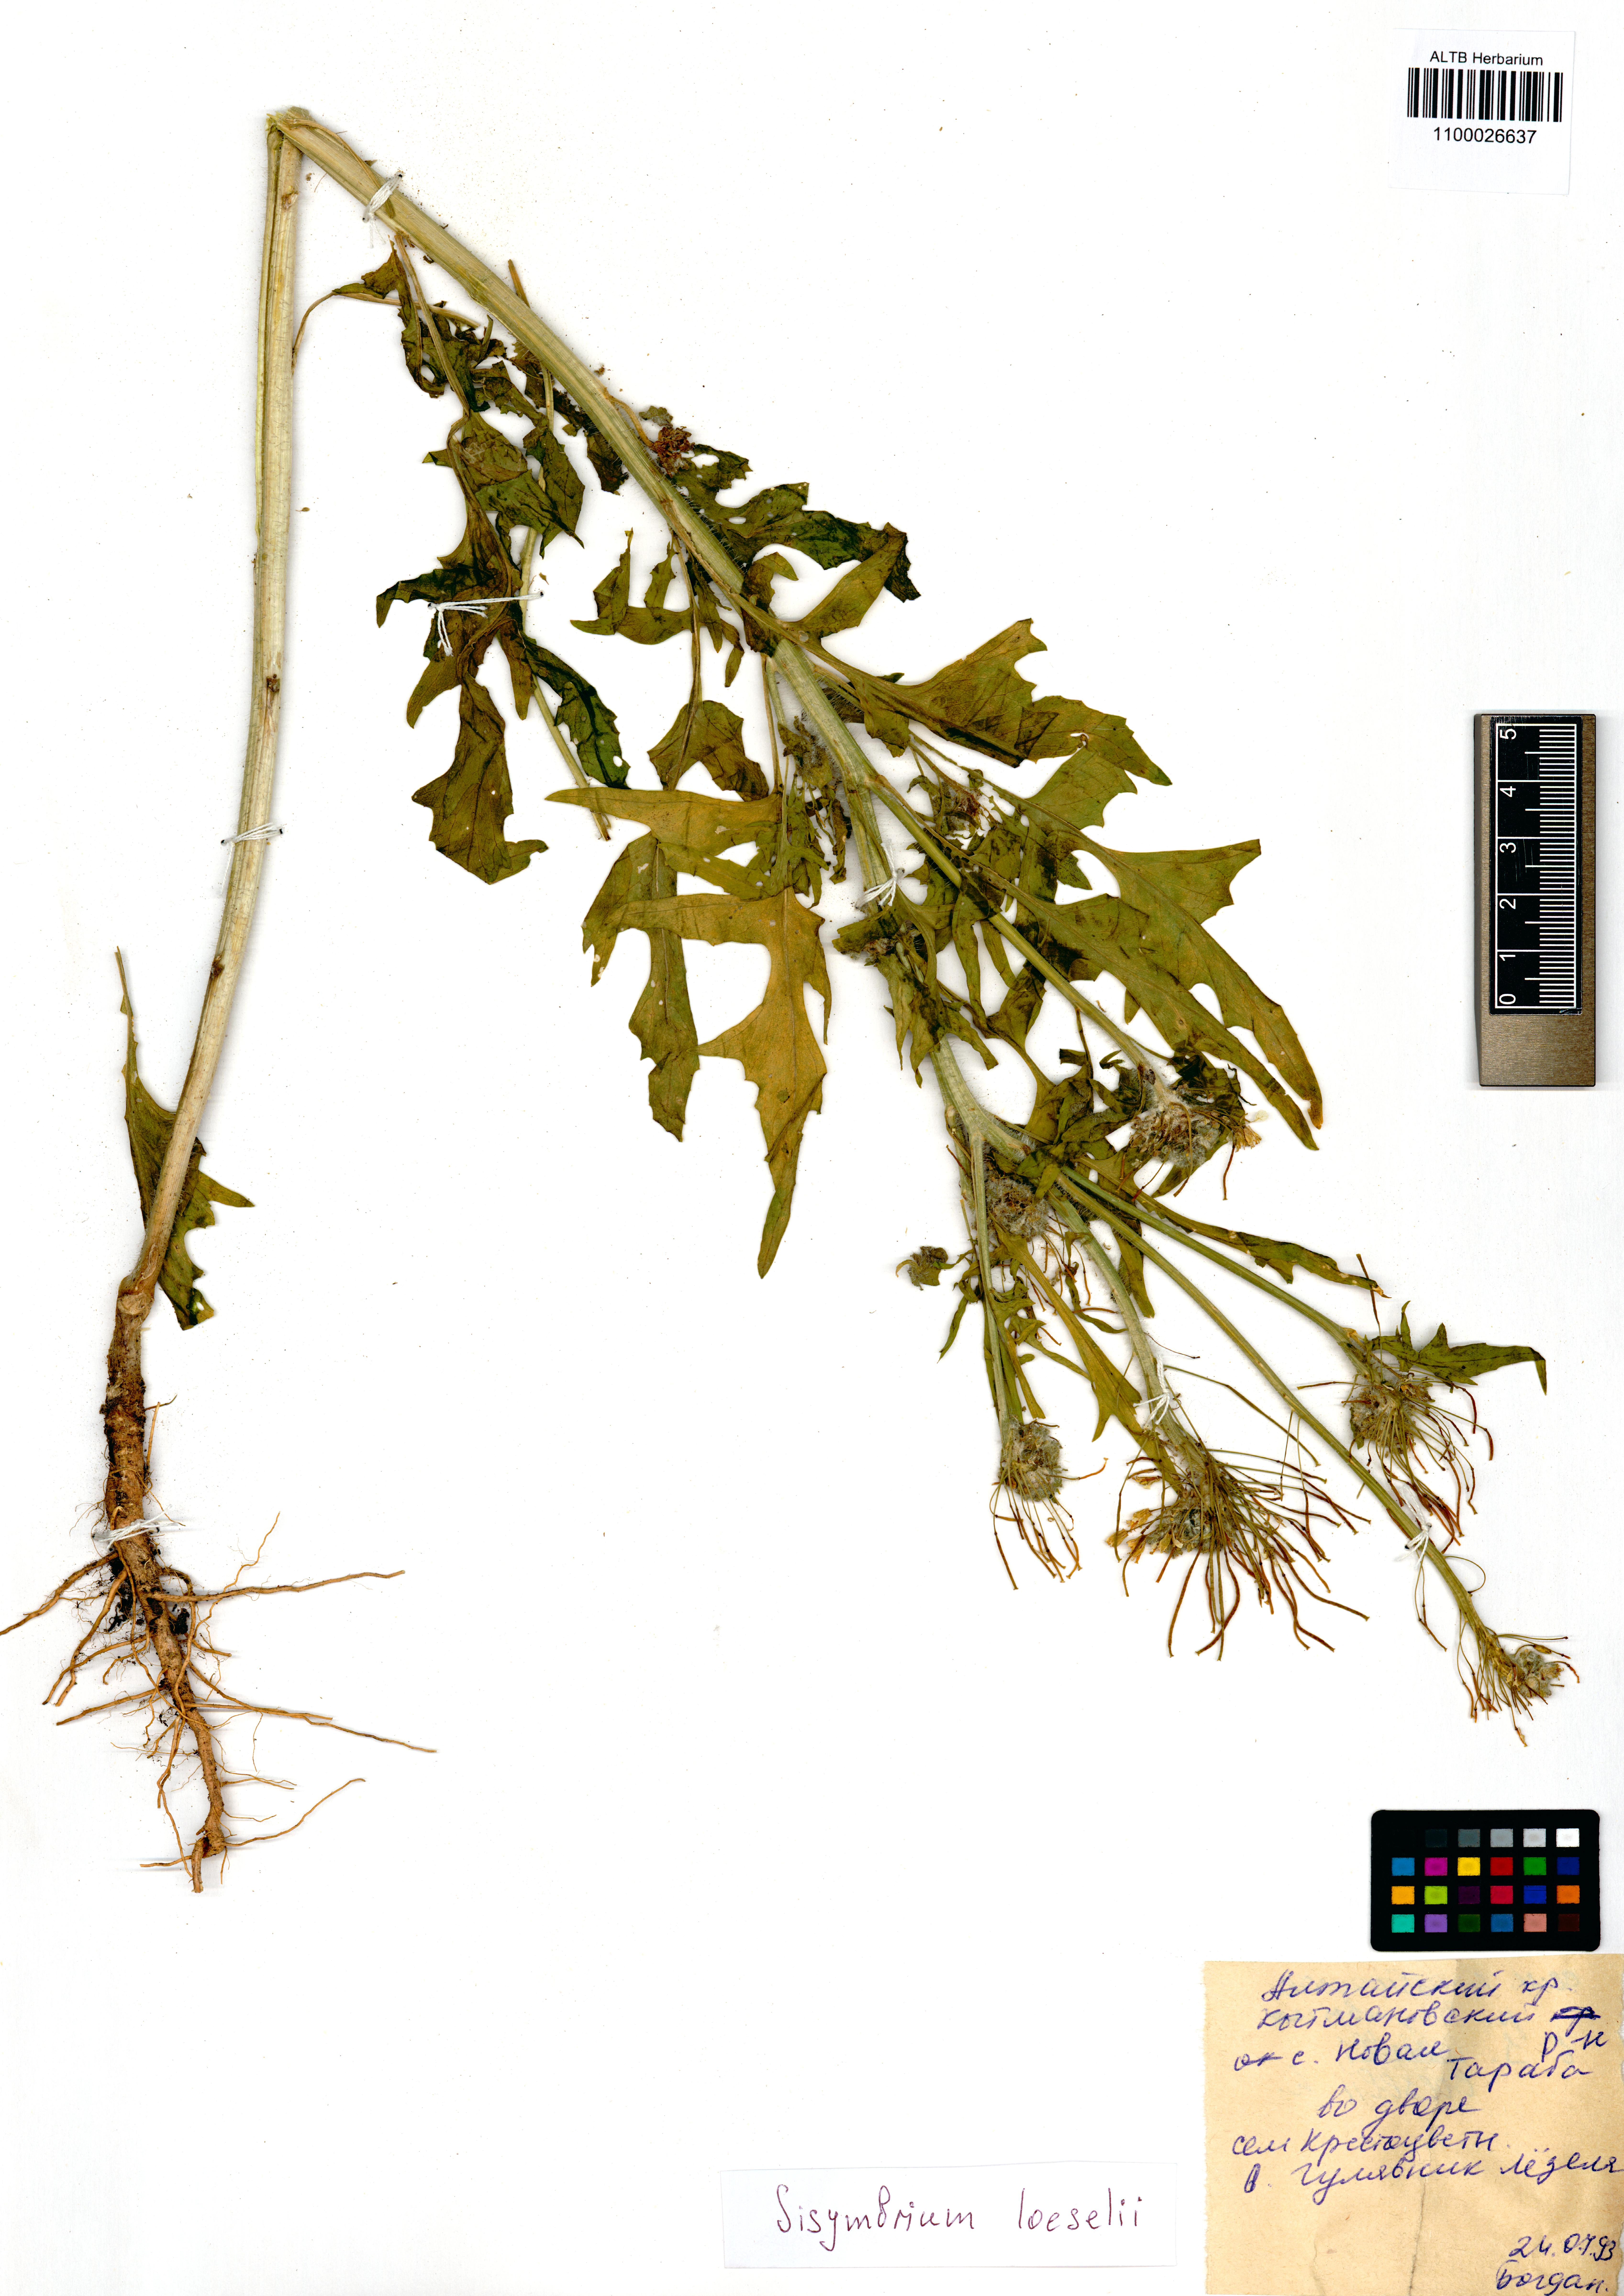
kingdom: Plantae
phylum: Tracheophyta
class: Magnoliopsida
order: Brassicales
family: Brassicaceae
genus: Sisymbrium
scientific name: Sisymbrium loeselii
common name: False london-rocket
